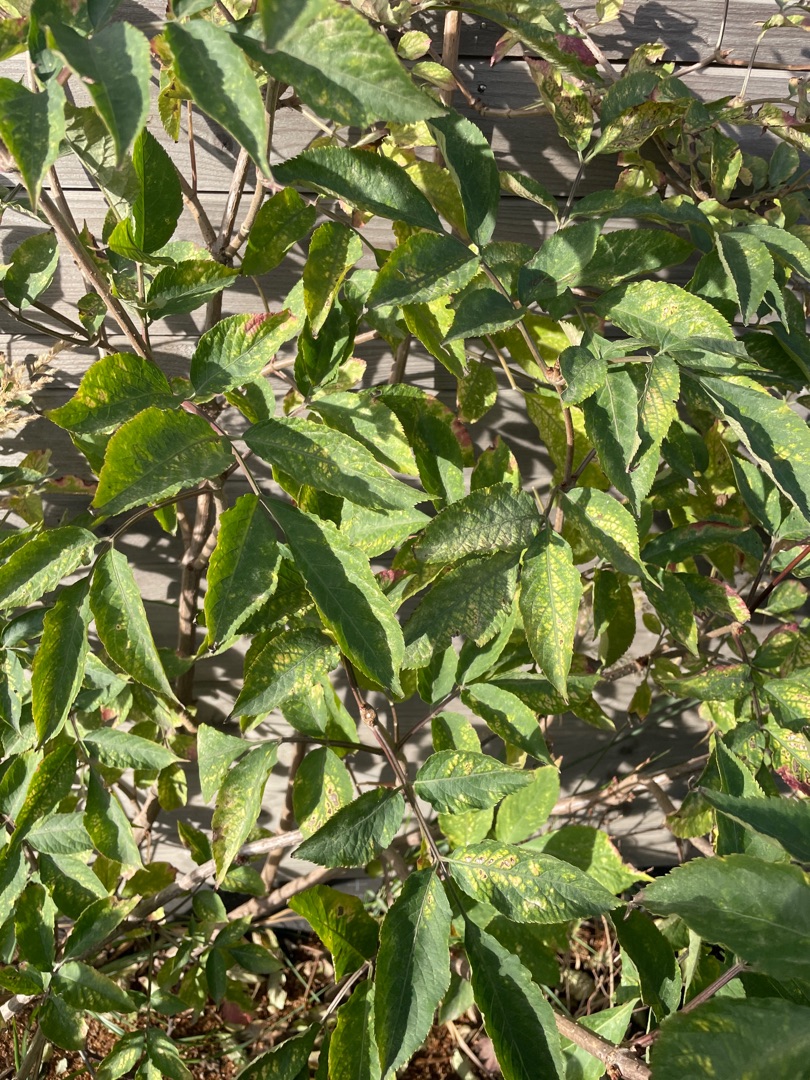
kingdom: Plantae
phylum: Tracheophyta
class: Magnoliopsida
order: Dipsacales
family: Viburnaceae
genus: Sambucus
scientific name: Sambucus nigra
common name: Almindelig hyld
